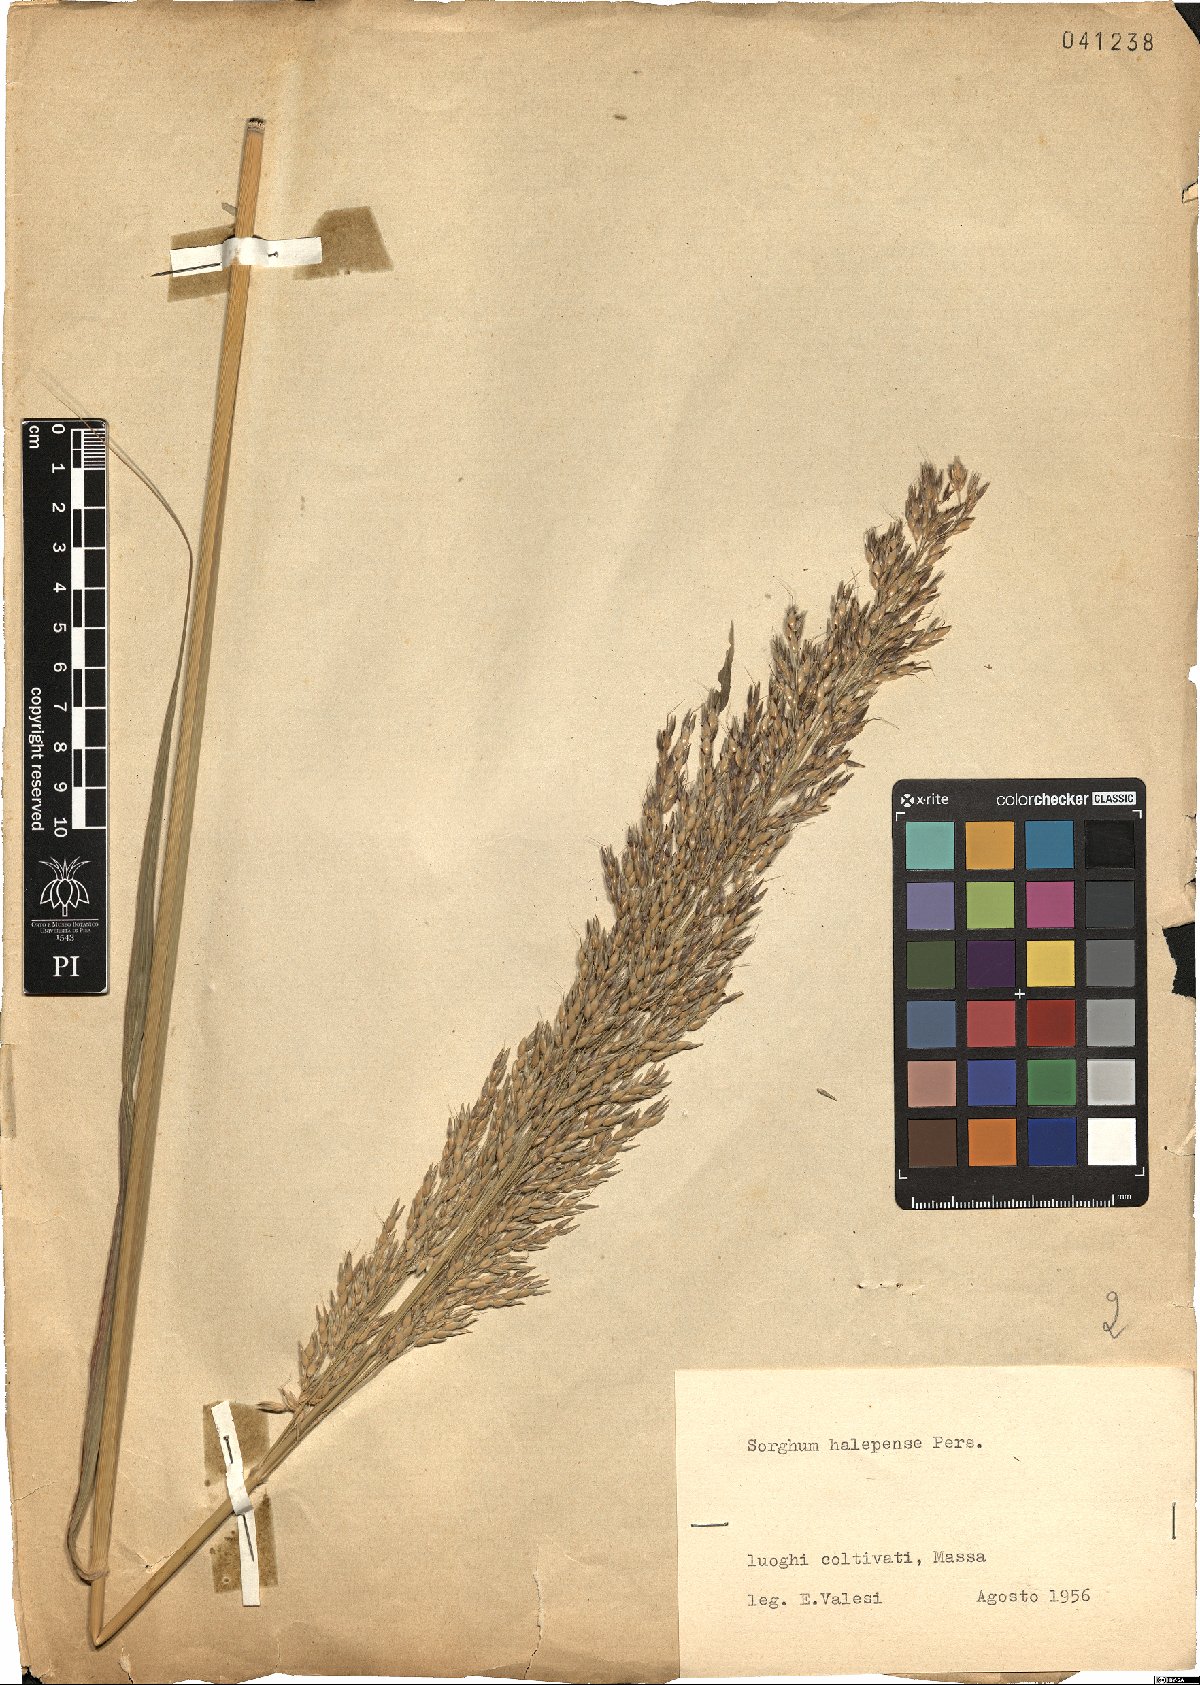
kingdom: Plantae
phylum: Tracheophyta
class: Liliopsida
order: Poales
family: Poaceae
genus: Sorghum
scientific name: Sorghum halepense
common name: Johnson-grass
